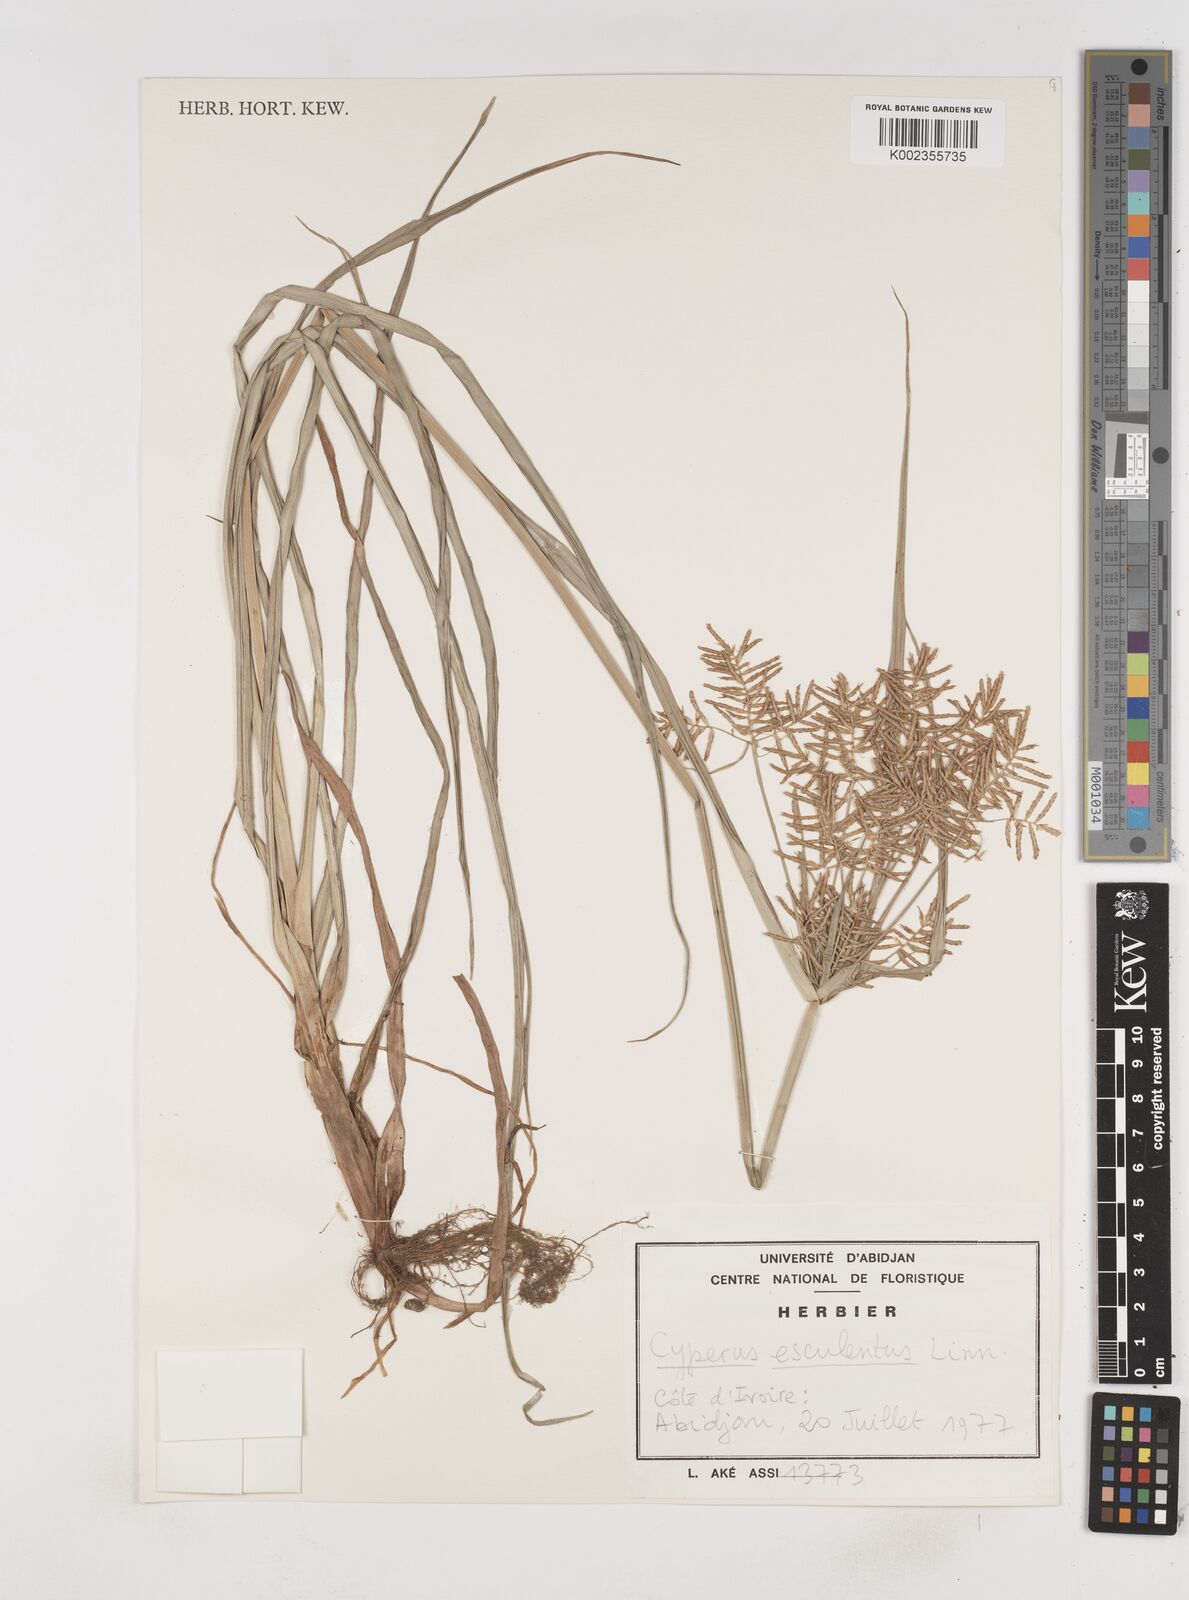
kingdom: Plantae
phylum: Tracheophyta
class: Liliopsida
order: Poales
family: Cyperaceae
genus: Cyperus
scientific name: Cyperus esculentus
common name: Yellow nutsedge
